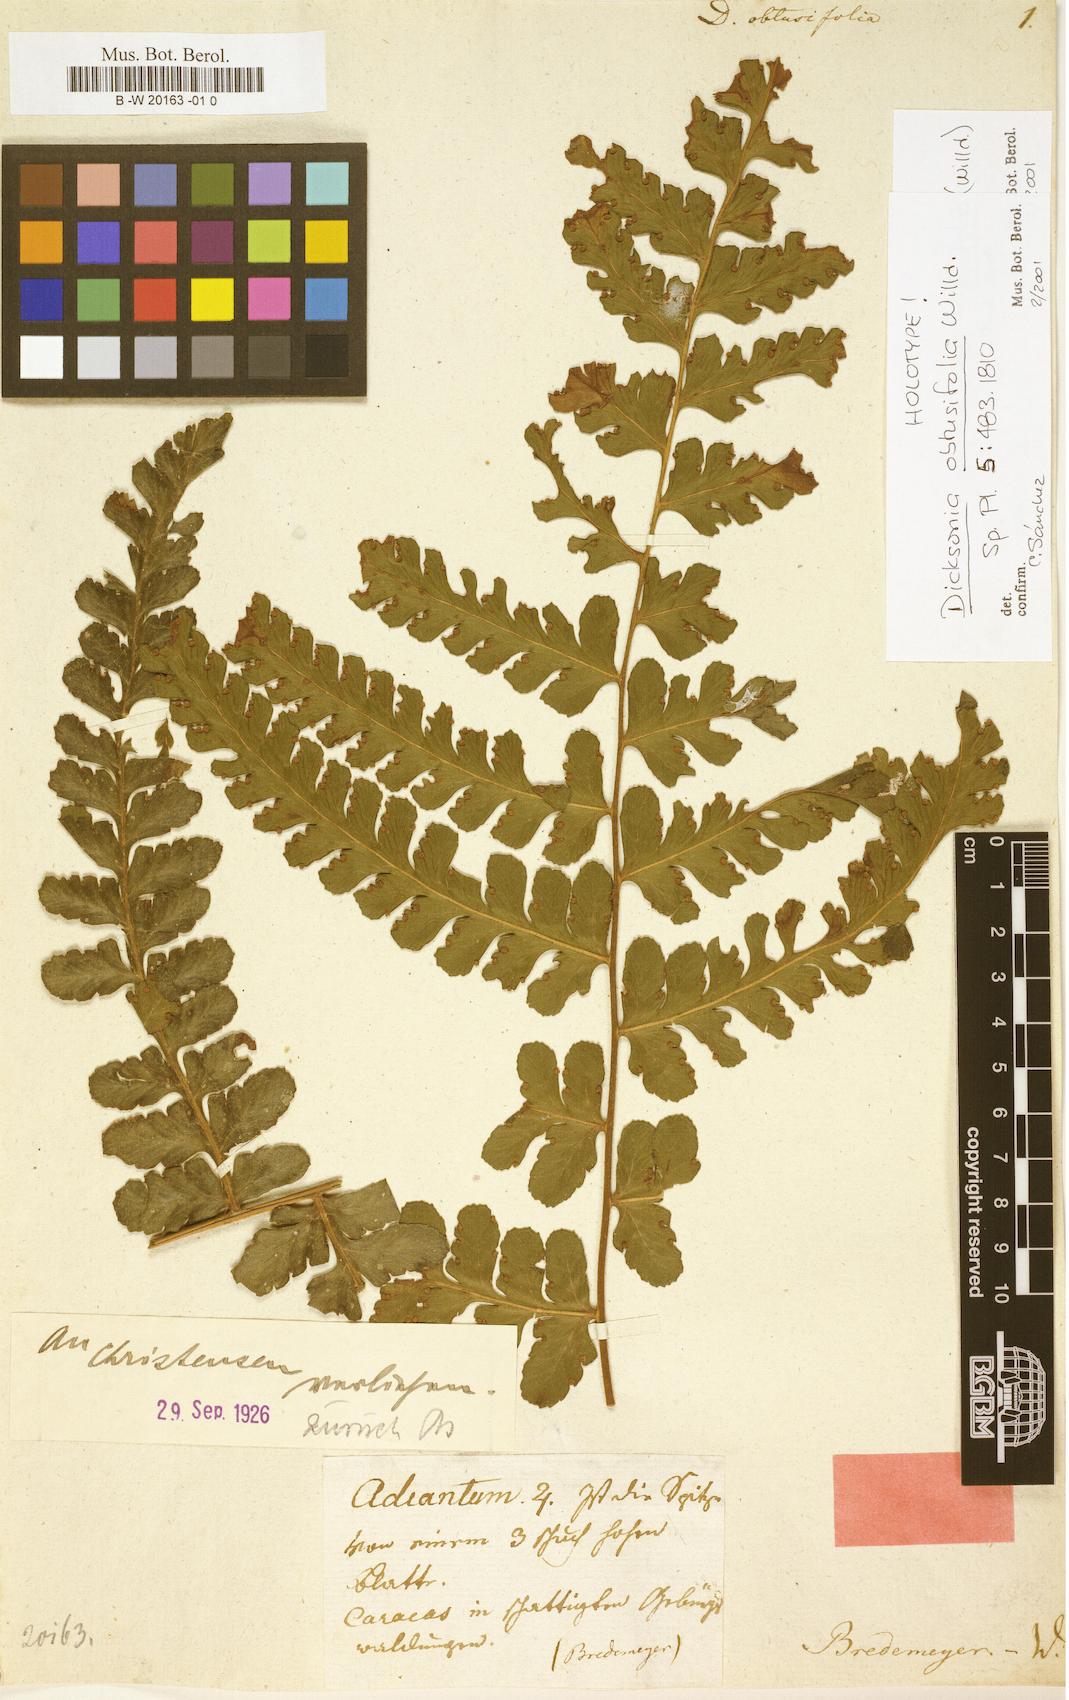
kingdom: Plantae
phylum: Tracheophyta
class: Polypodiopsida
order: Polypodiales
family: Dennstaedtiaceae
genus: Dennstaedtia
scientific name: Dennstaedtia obtusifolia
